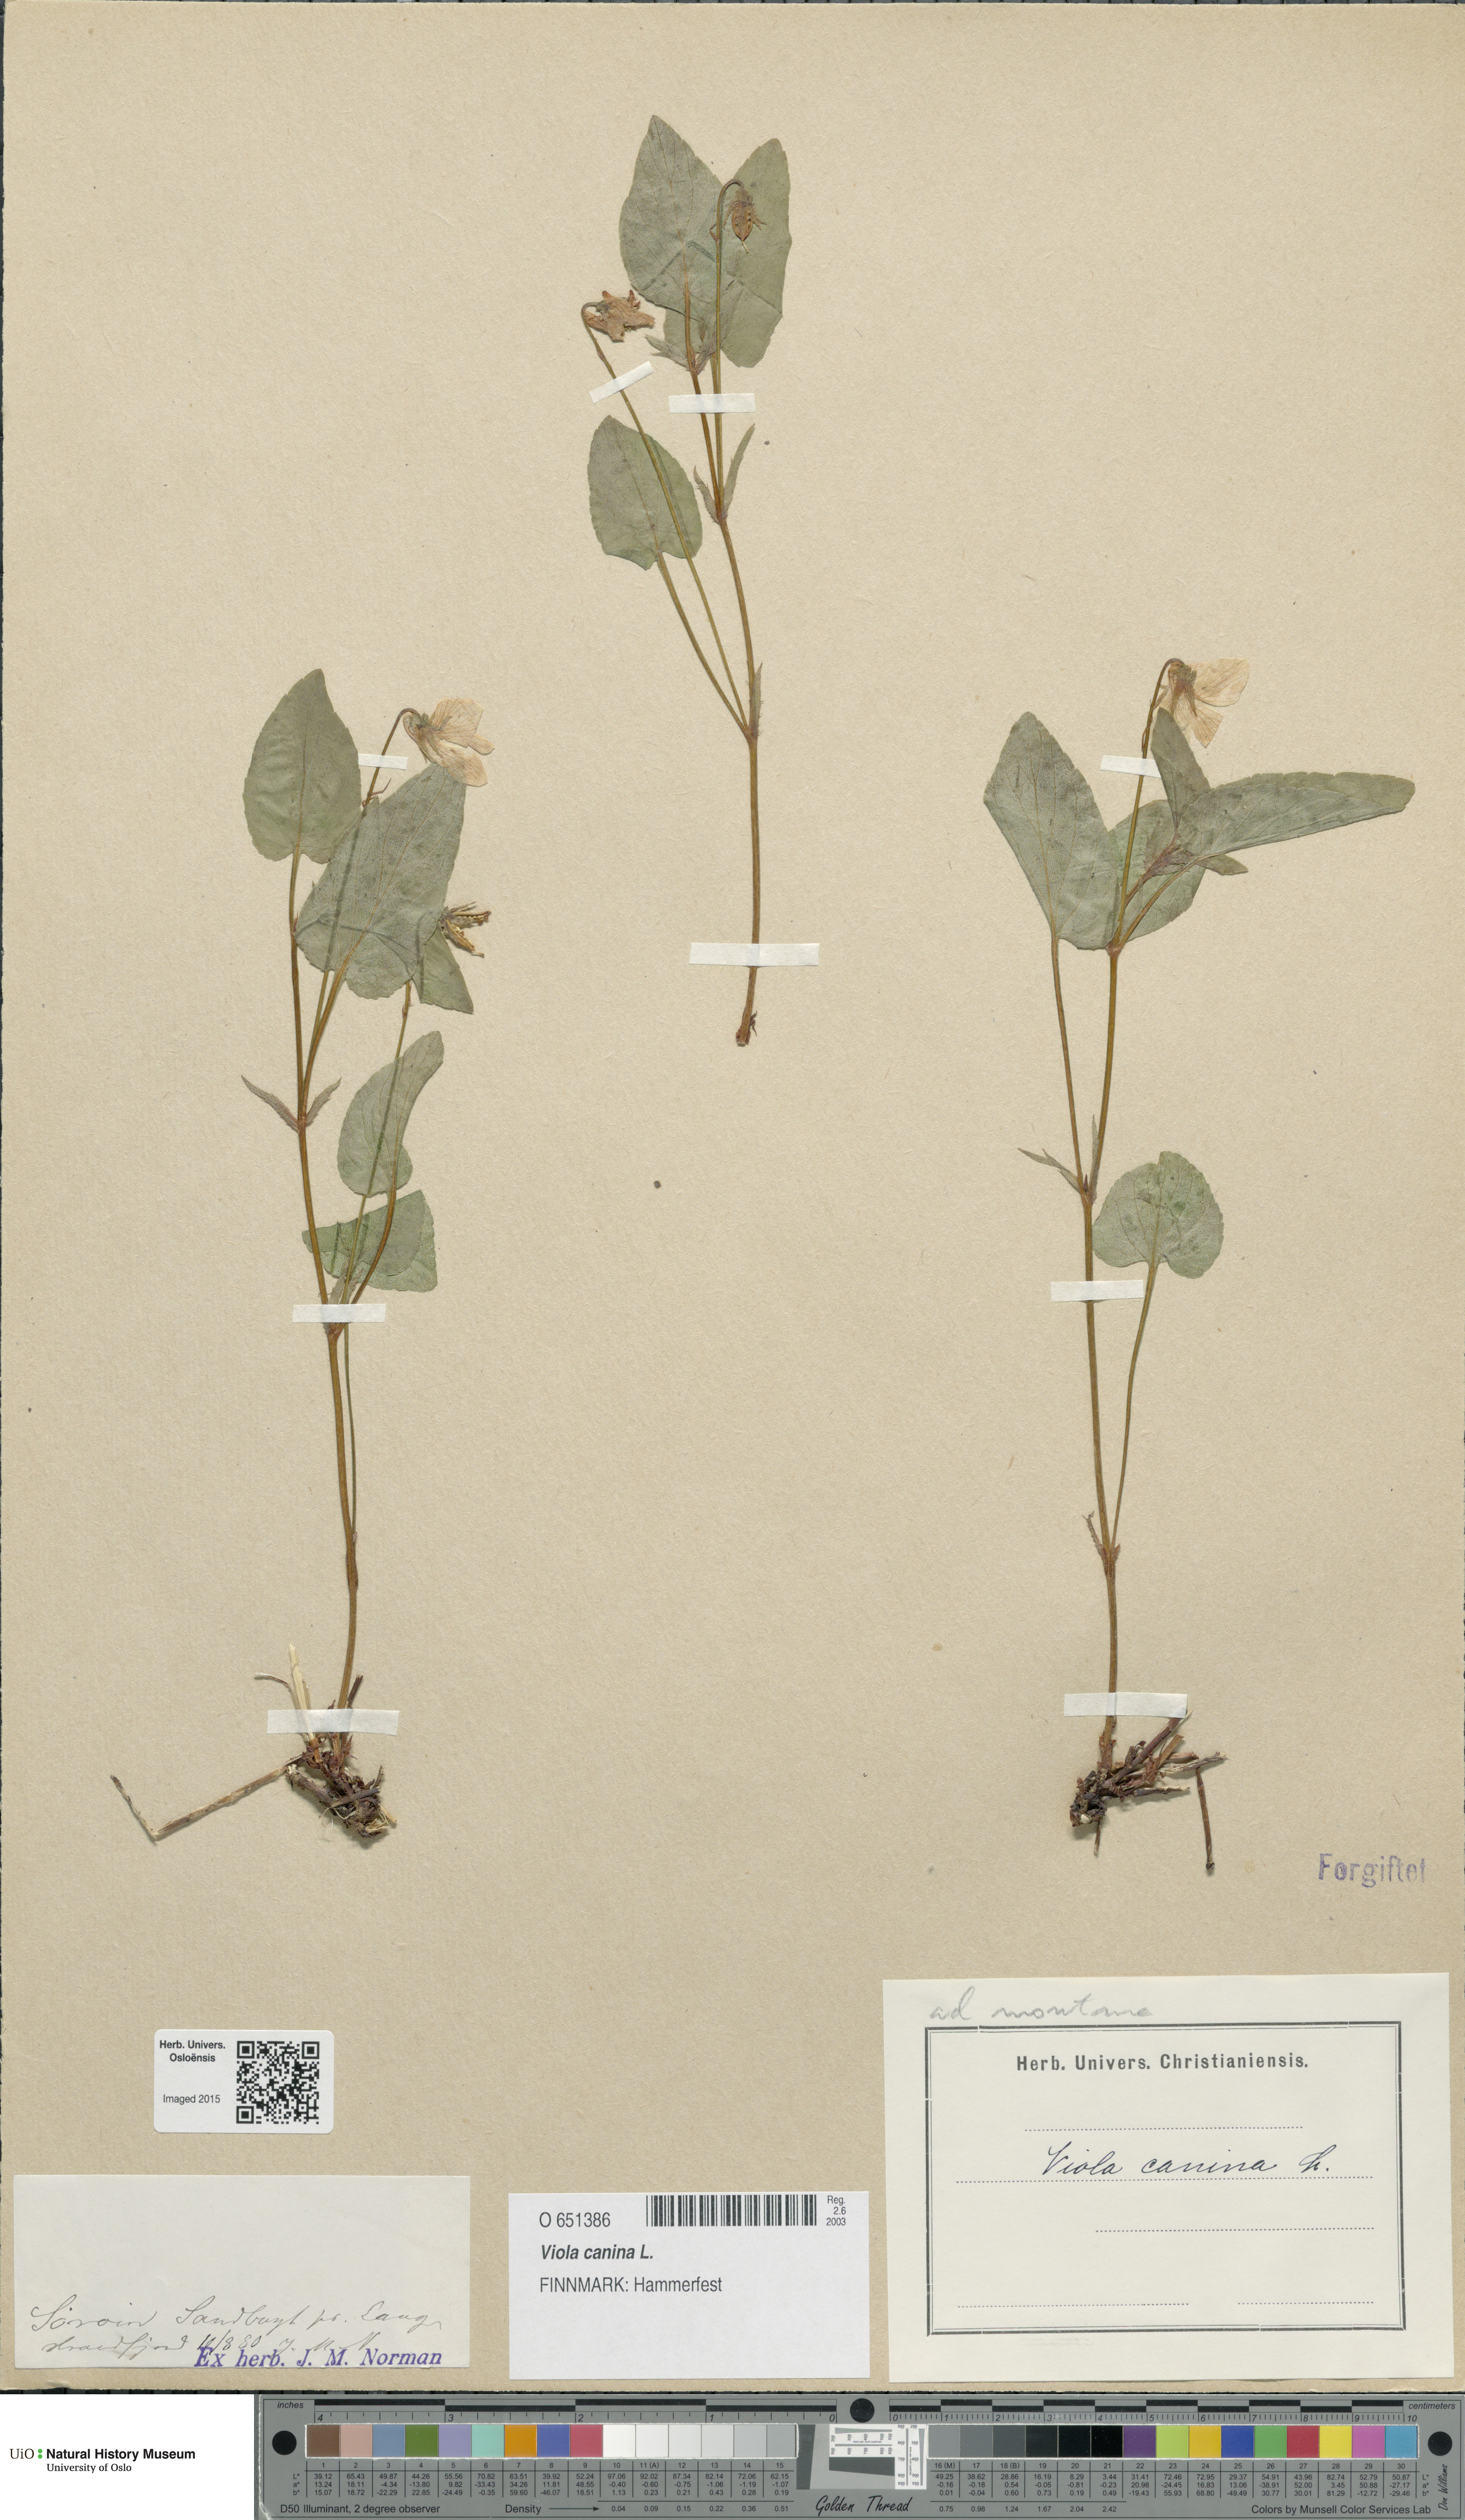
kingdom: Plantae
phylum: Tracheophyta
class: Magnoliopsida
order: Malpighiales
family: Violaceae
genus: Viola
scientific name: Viola canina
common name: Heath dog-violet
